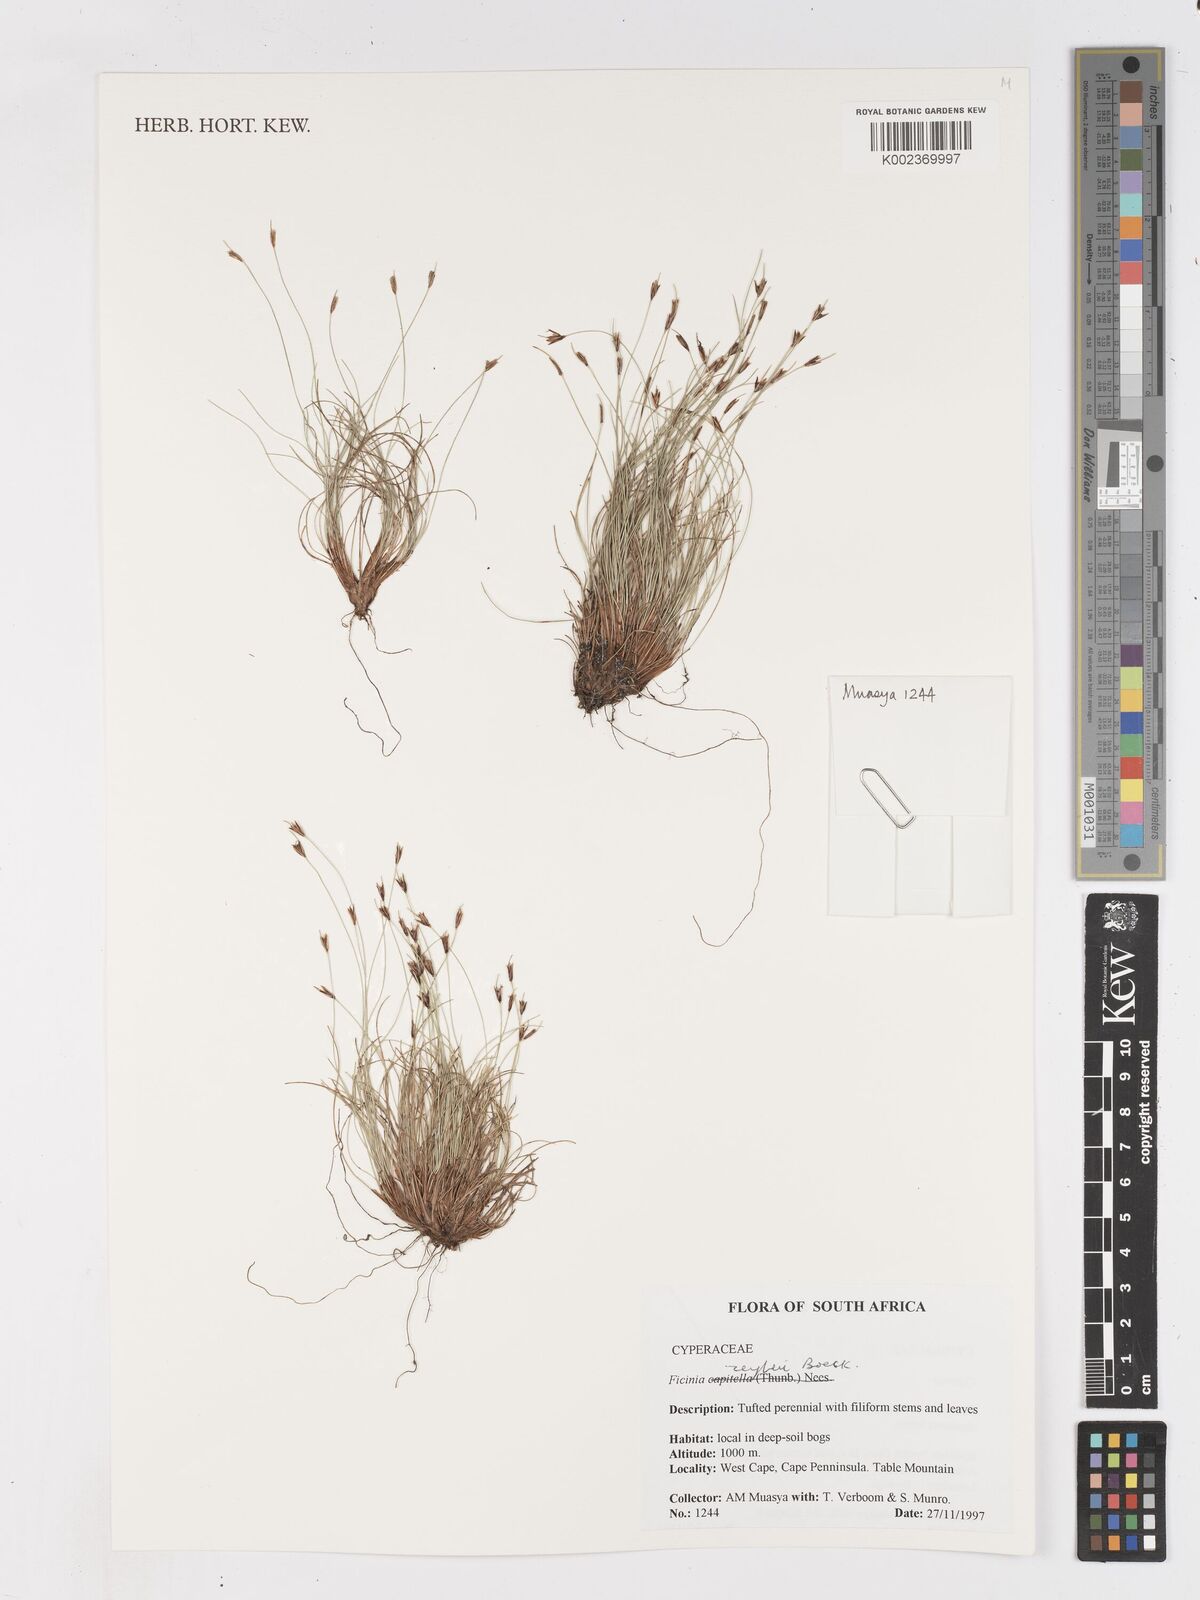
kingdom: Plantae
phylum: Tracheophyta
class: Liliopsida
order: Poales
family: Cyperaceae
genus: Ficinia
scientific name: Ficinia zeyheri
